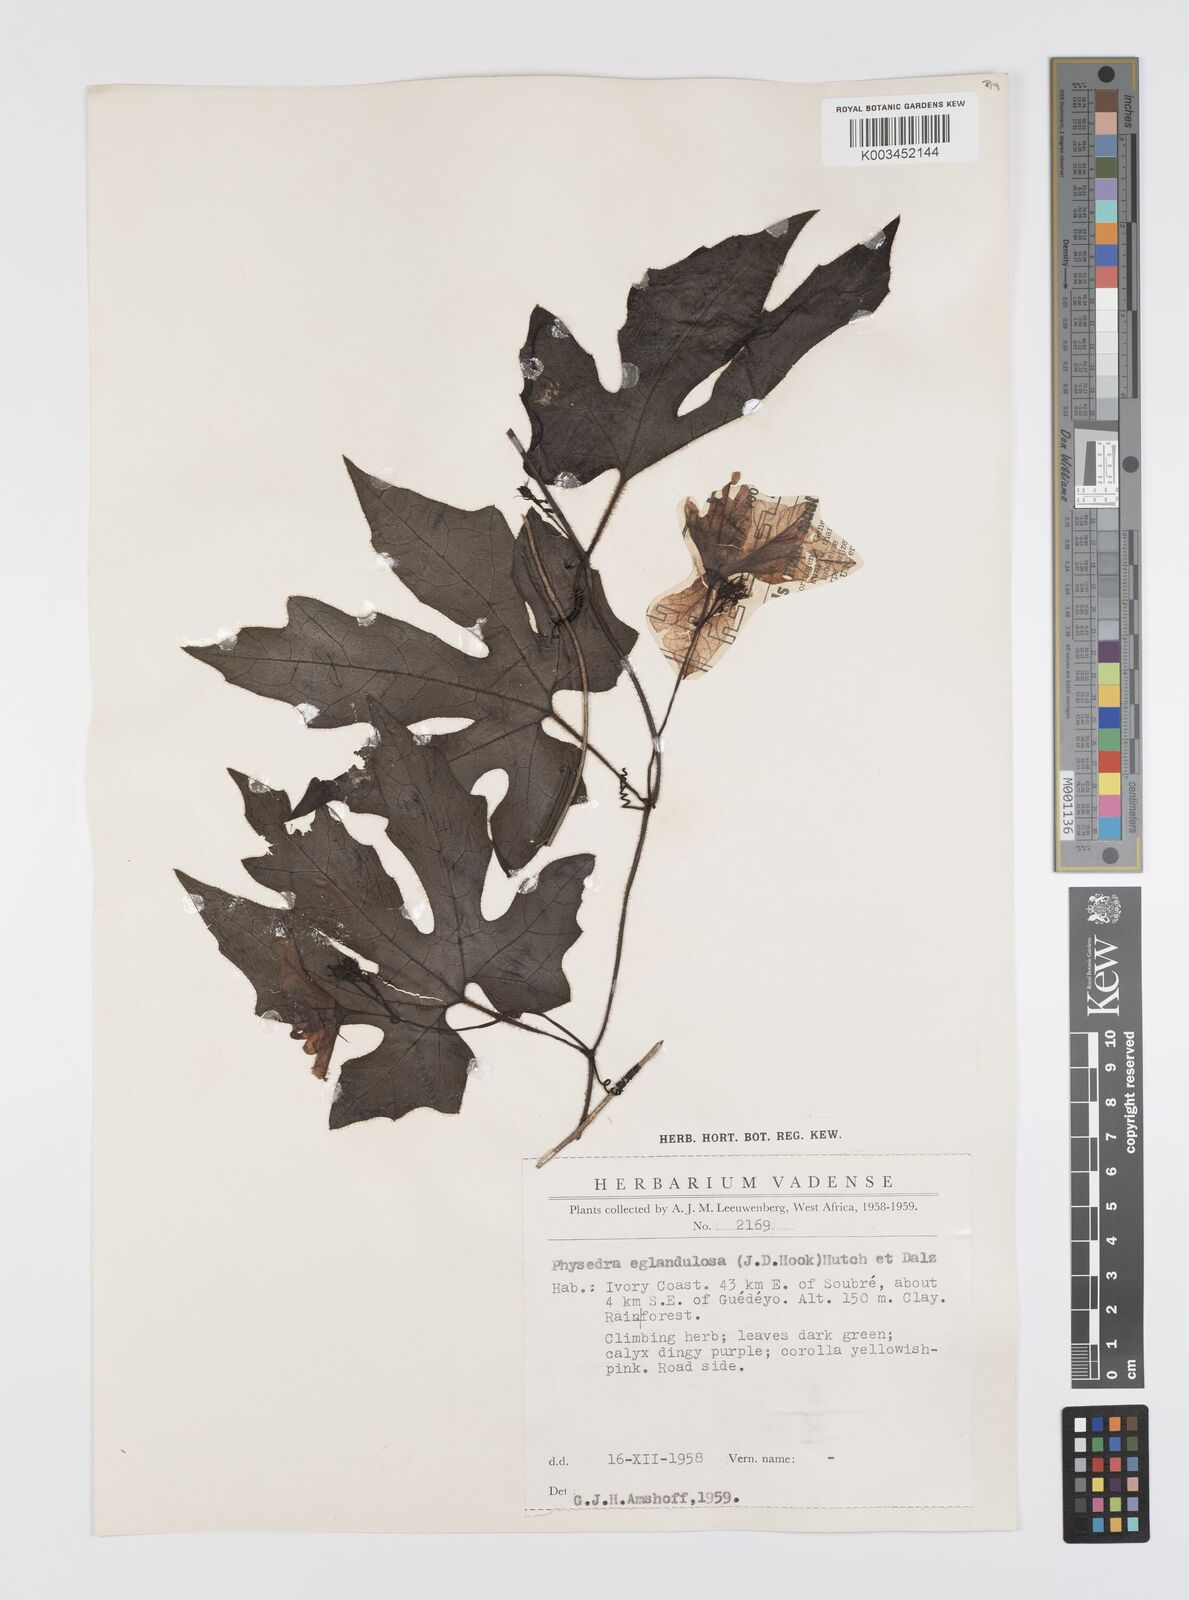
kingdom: Plantae
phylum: Tracheophyta
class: Magnoliopsida
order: Cucurbitales
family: Cucurbitaceae
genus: Ruthalicia
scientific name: Ruthalicia eglandulosa
